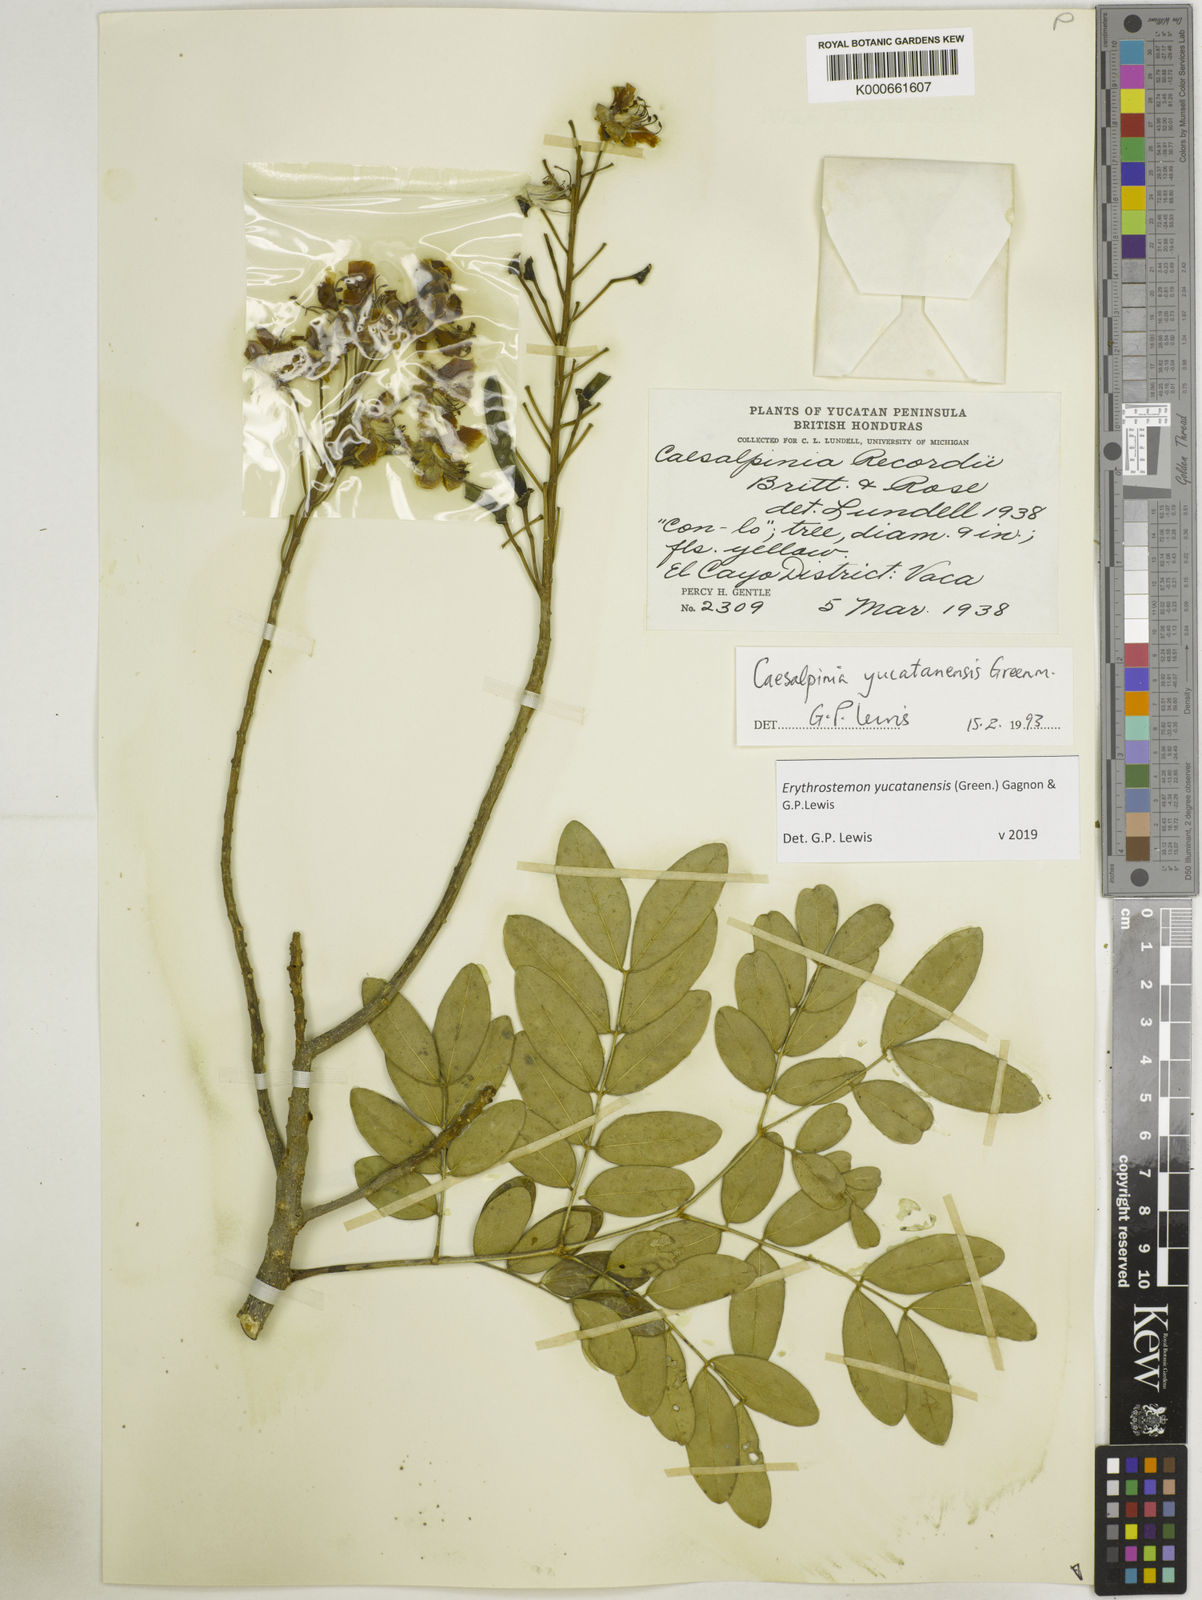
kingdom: Plantae
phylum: Tracheophyta
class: Magnoliopsida
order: Fabales
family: Fabaceae
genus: Caesalpinia
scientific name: Caesalpinia
